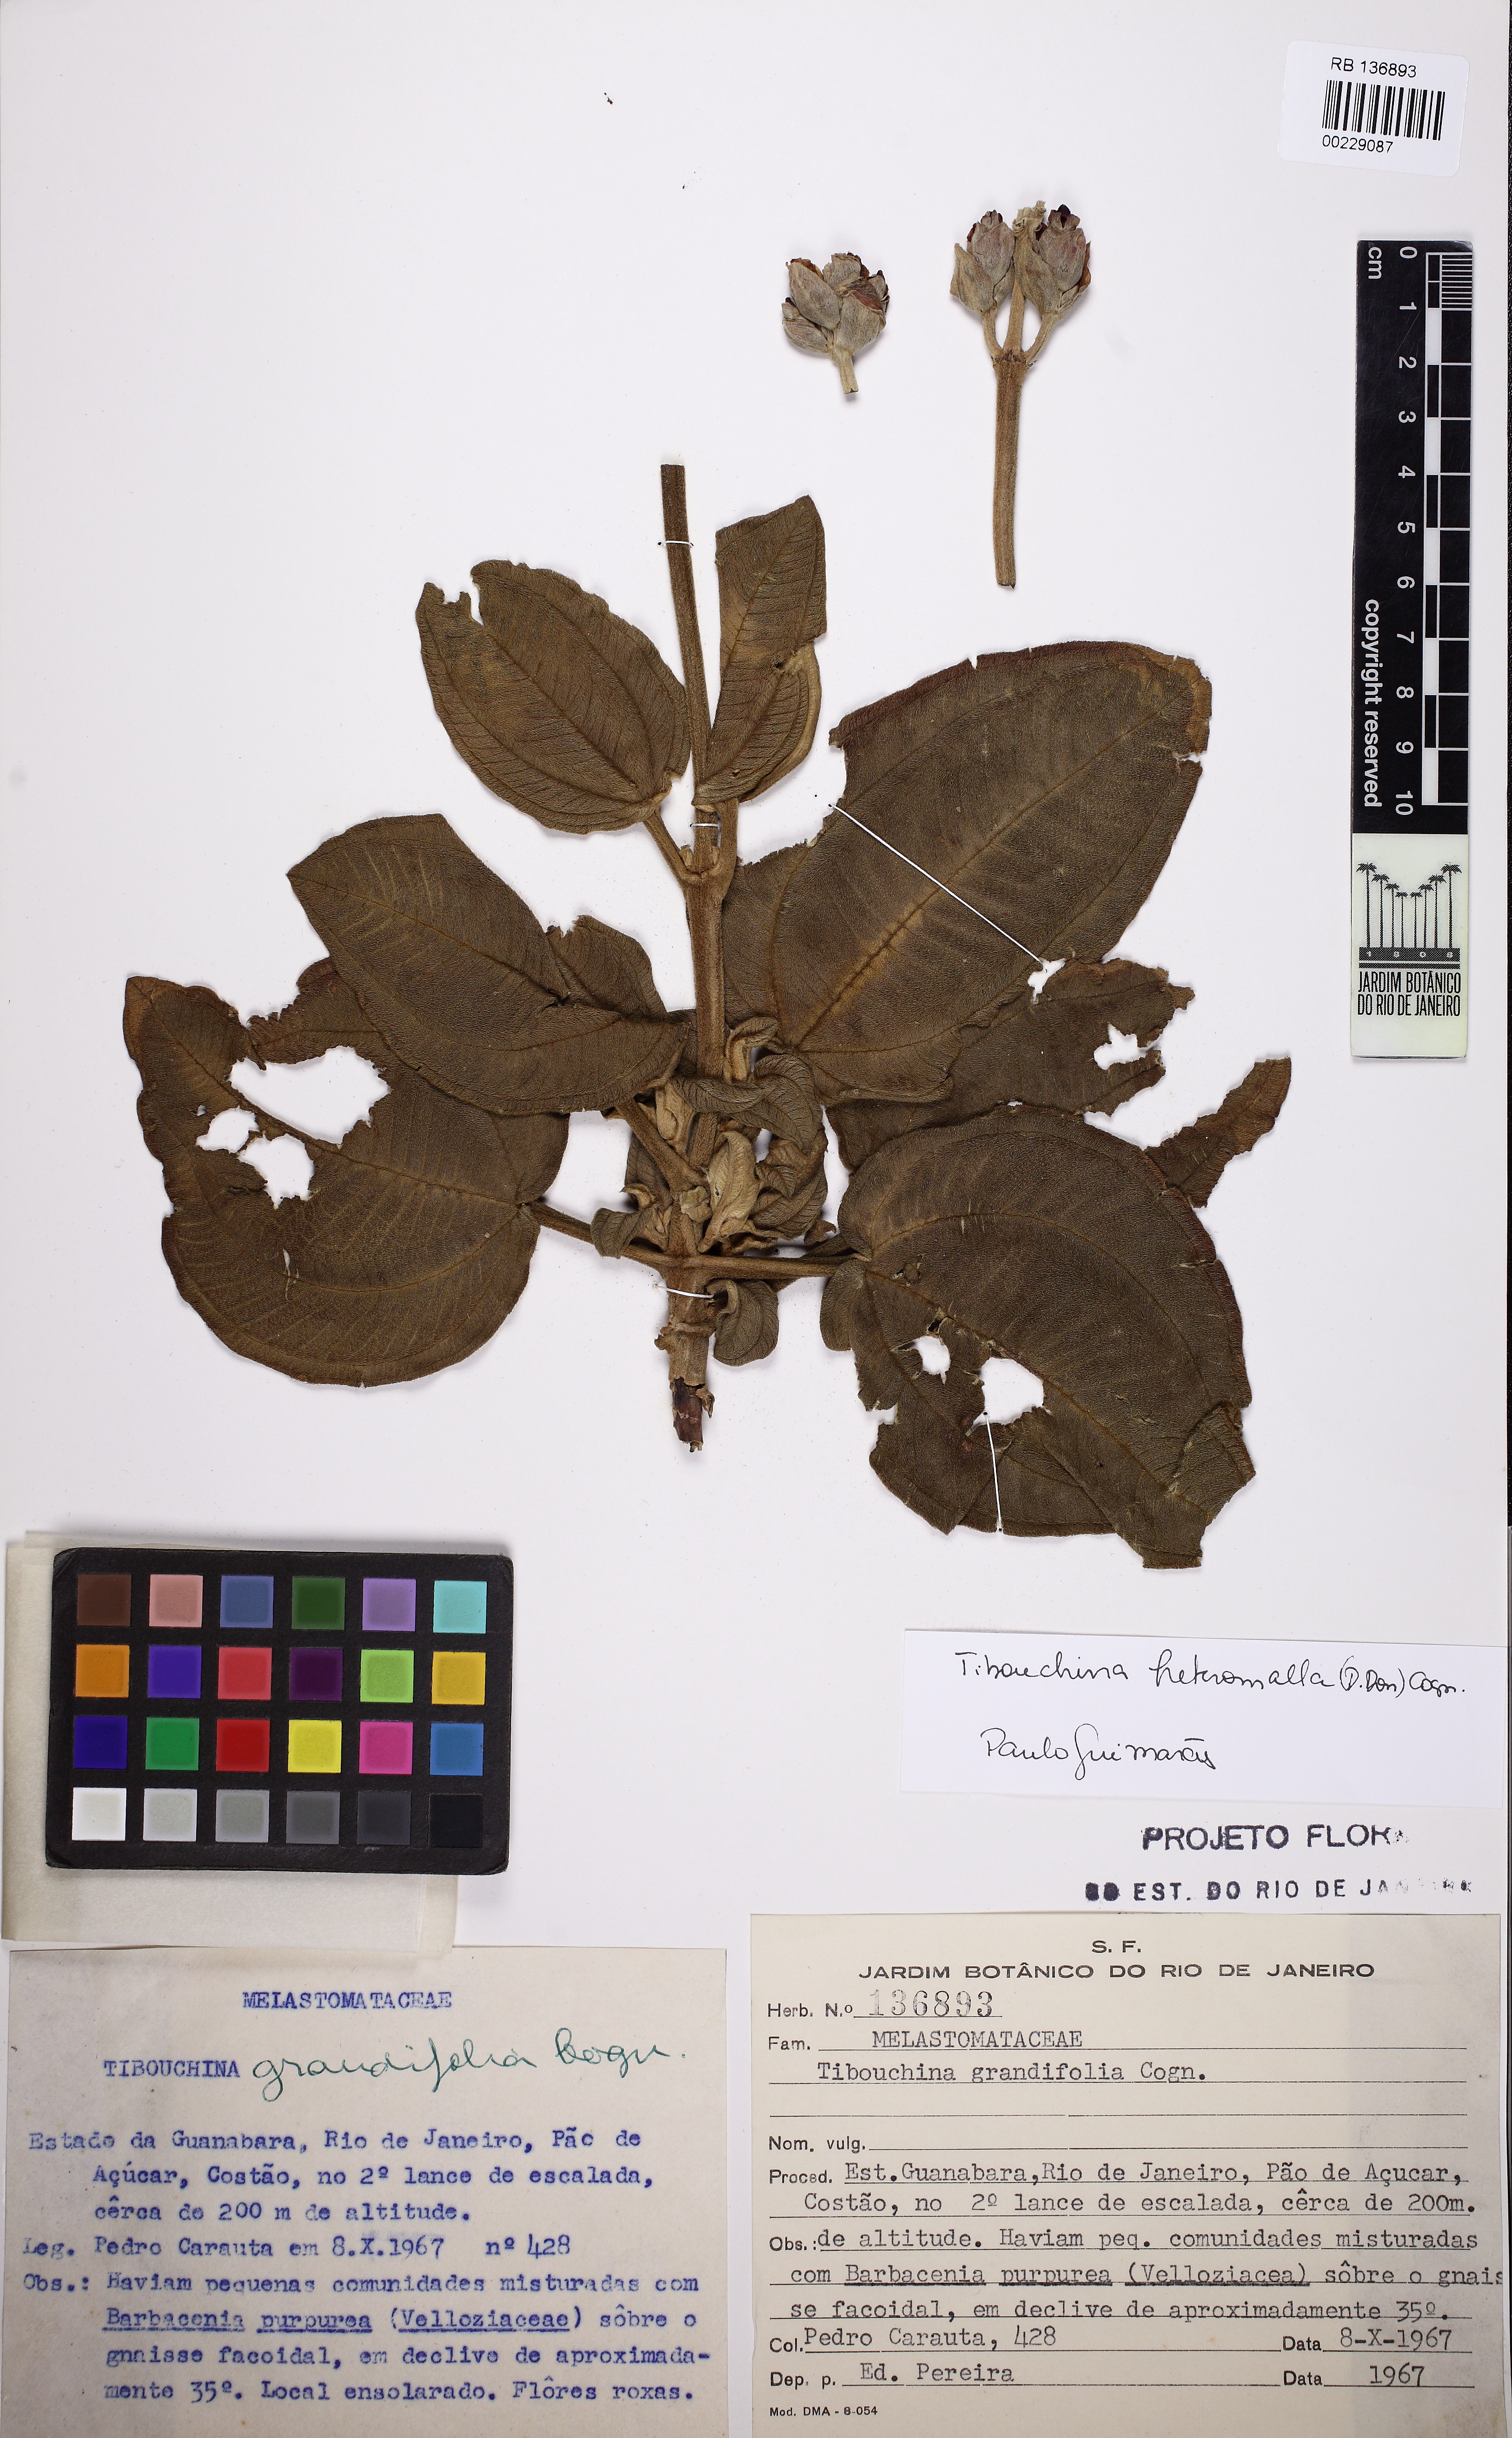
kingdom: Plantae
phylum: Tracheophyta
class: Magnoliopsida
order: Myrtales
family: Melastomataceae
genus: Pleroma
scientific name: Pleroma heteromallum
